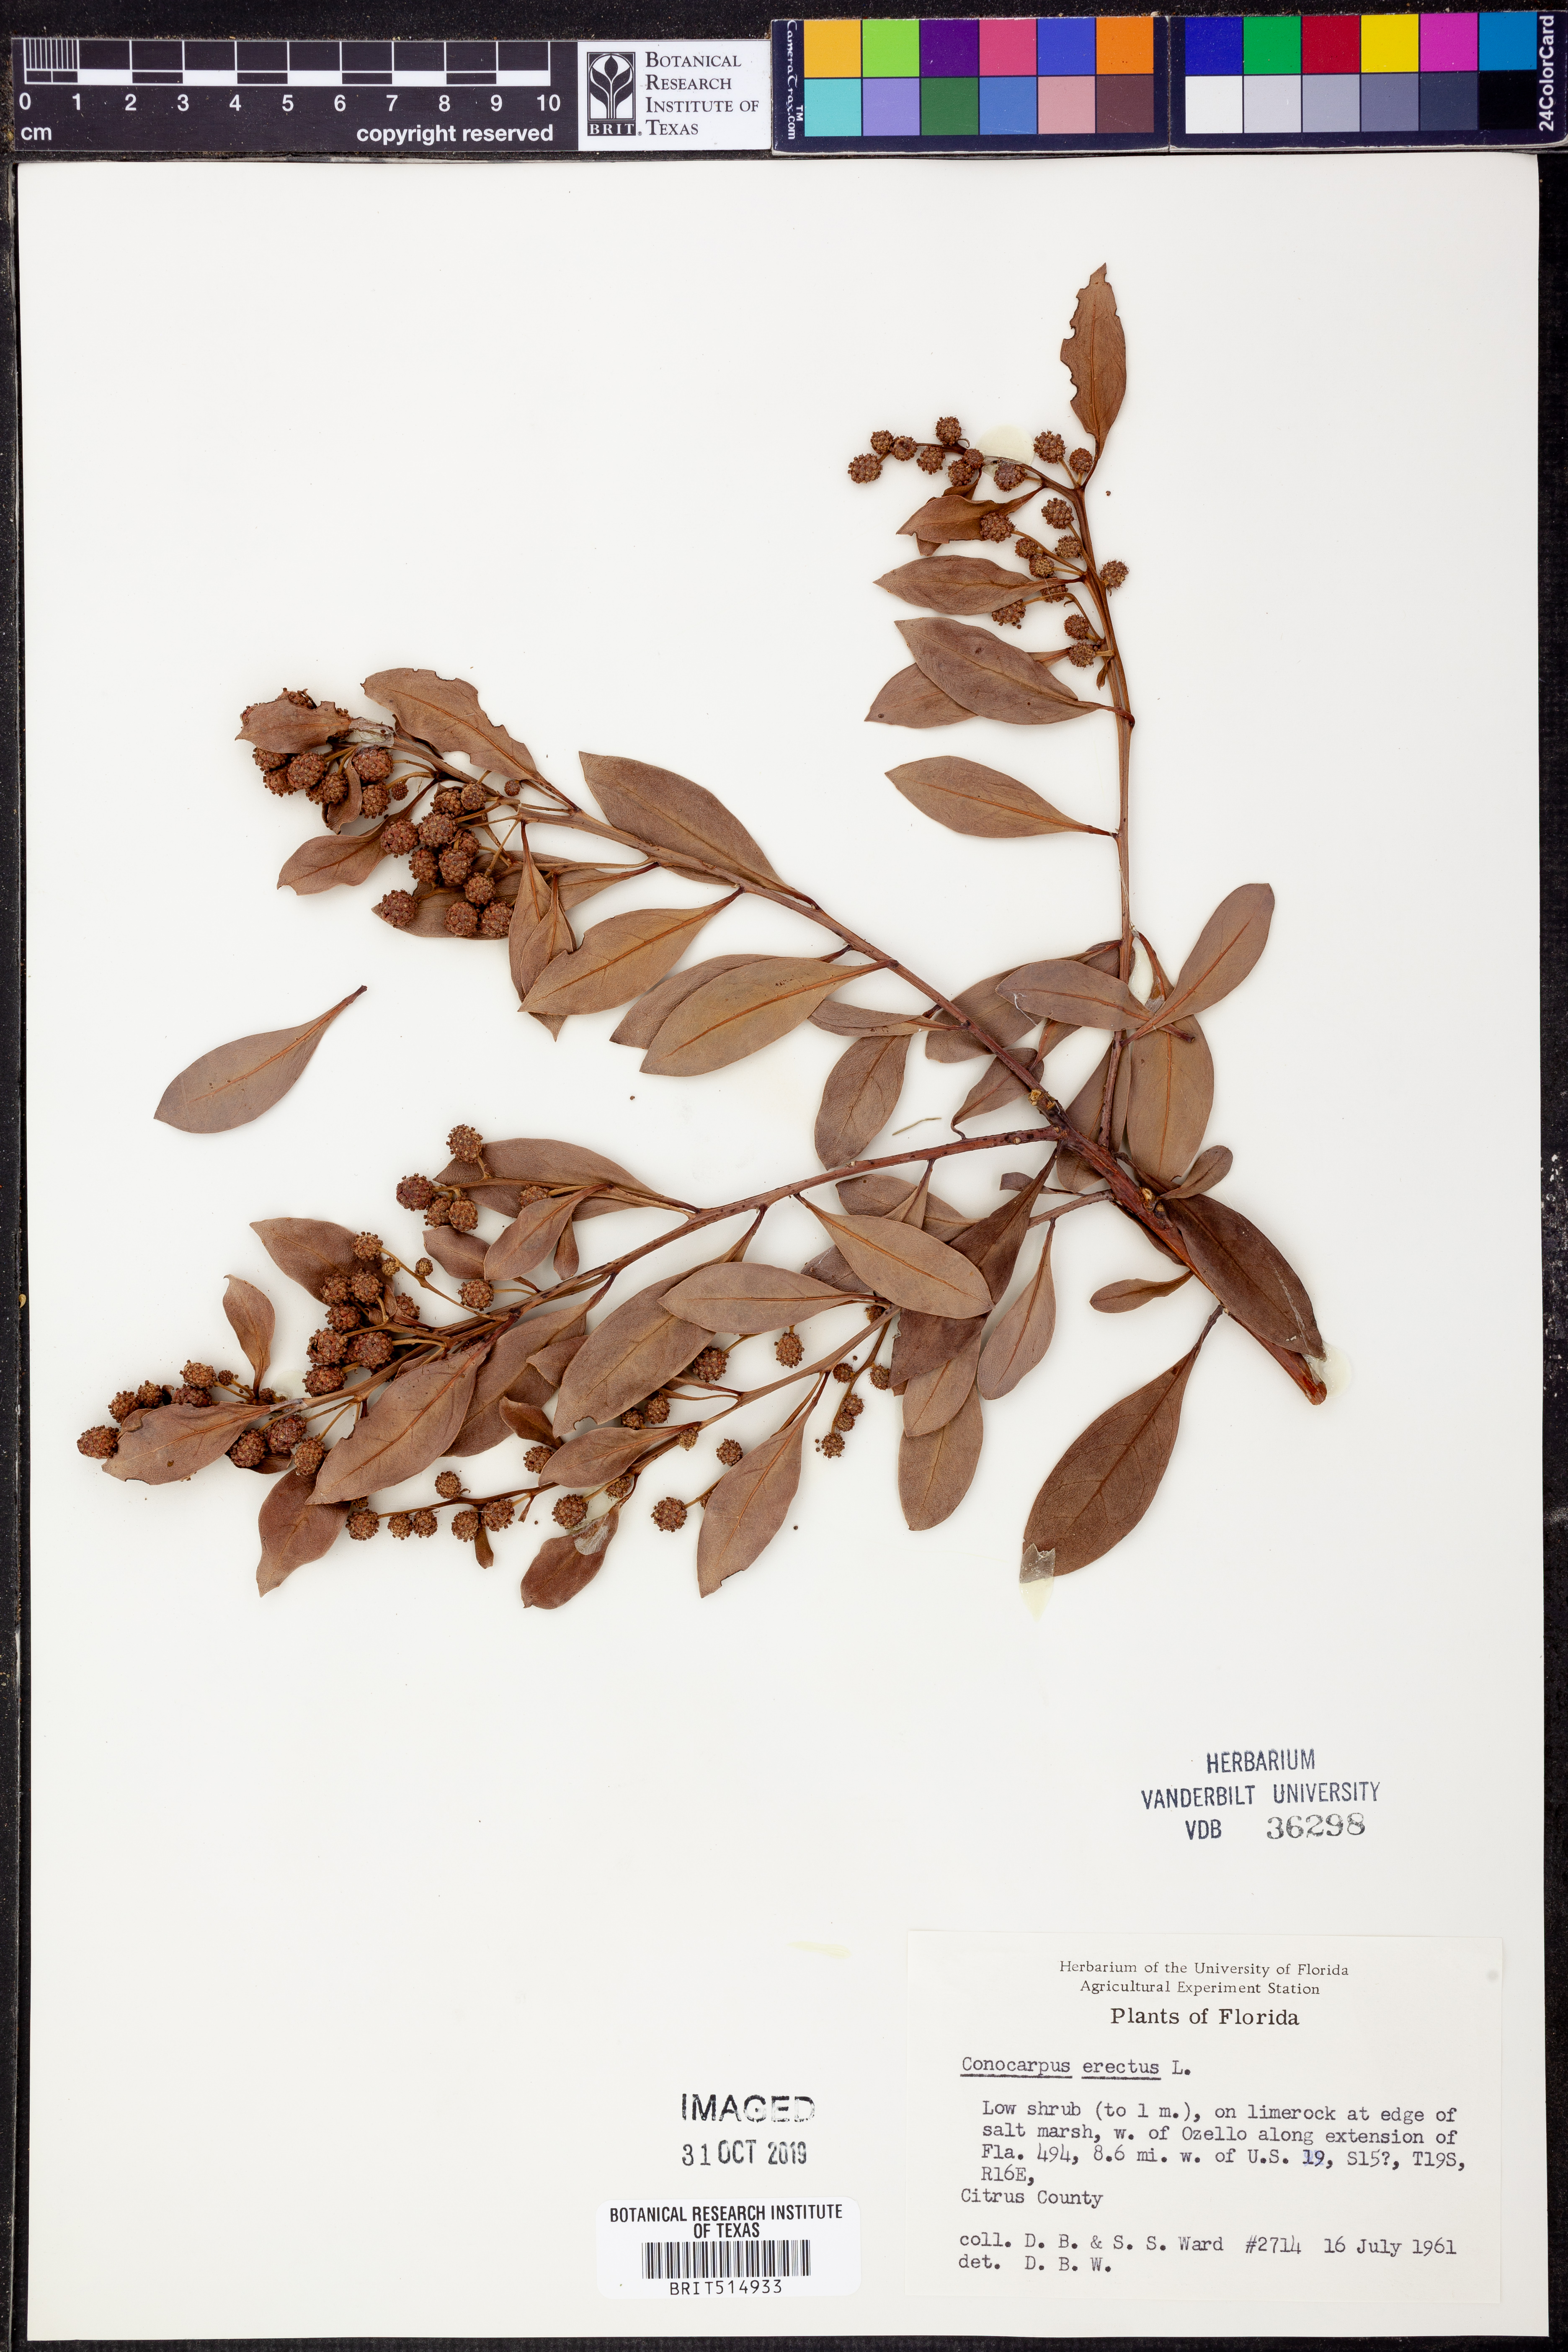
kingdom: Plantae
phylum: Tracheophyta
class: Magnoliopsida
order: Myrtales
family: Combretaceae
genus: Conocarpus
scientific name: Conocarpus erectus
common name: Button mangrove
